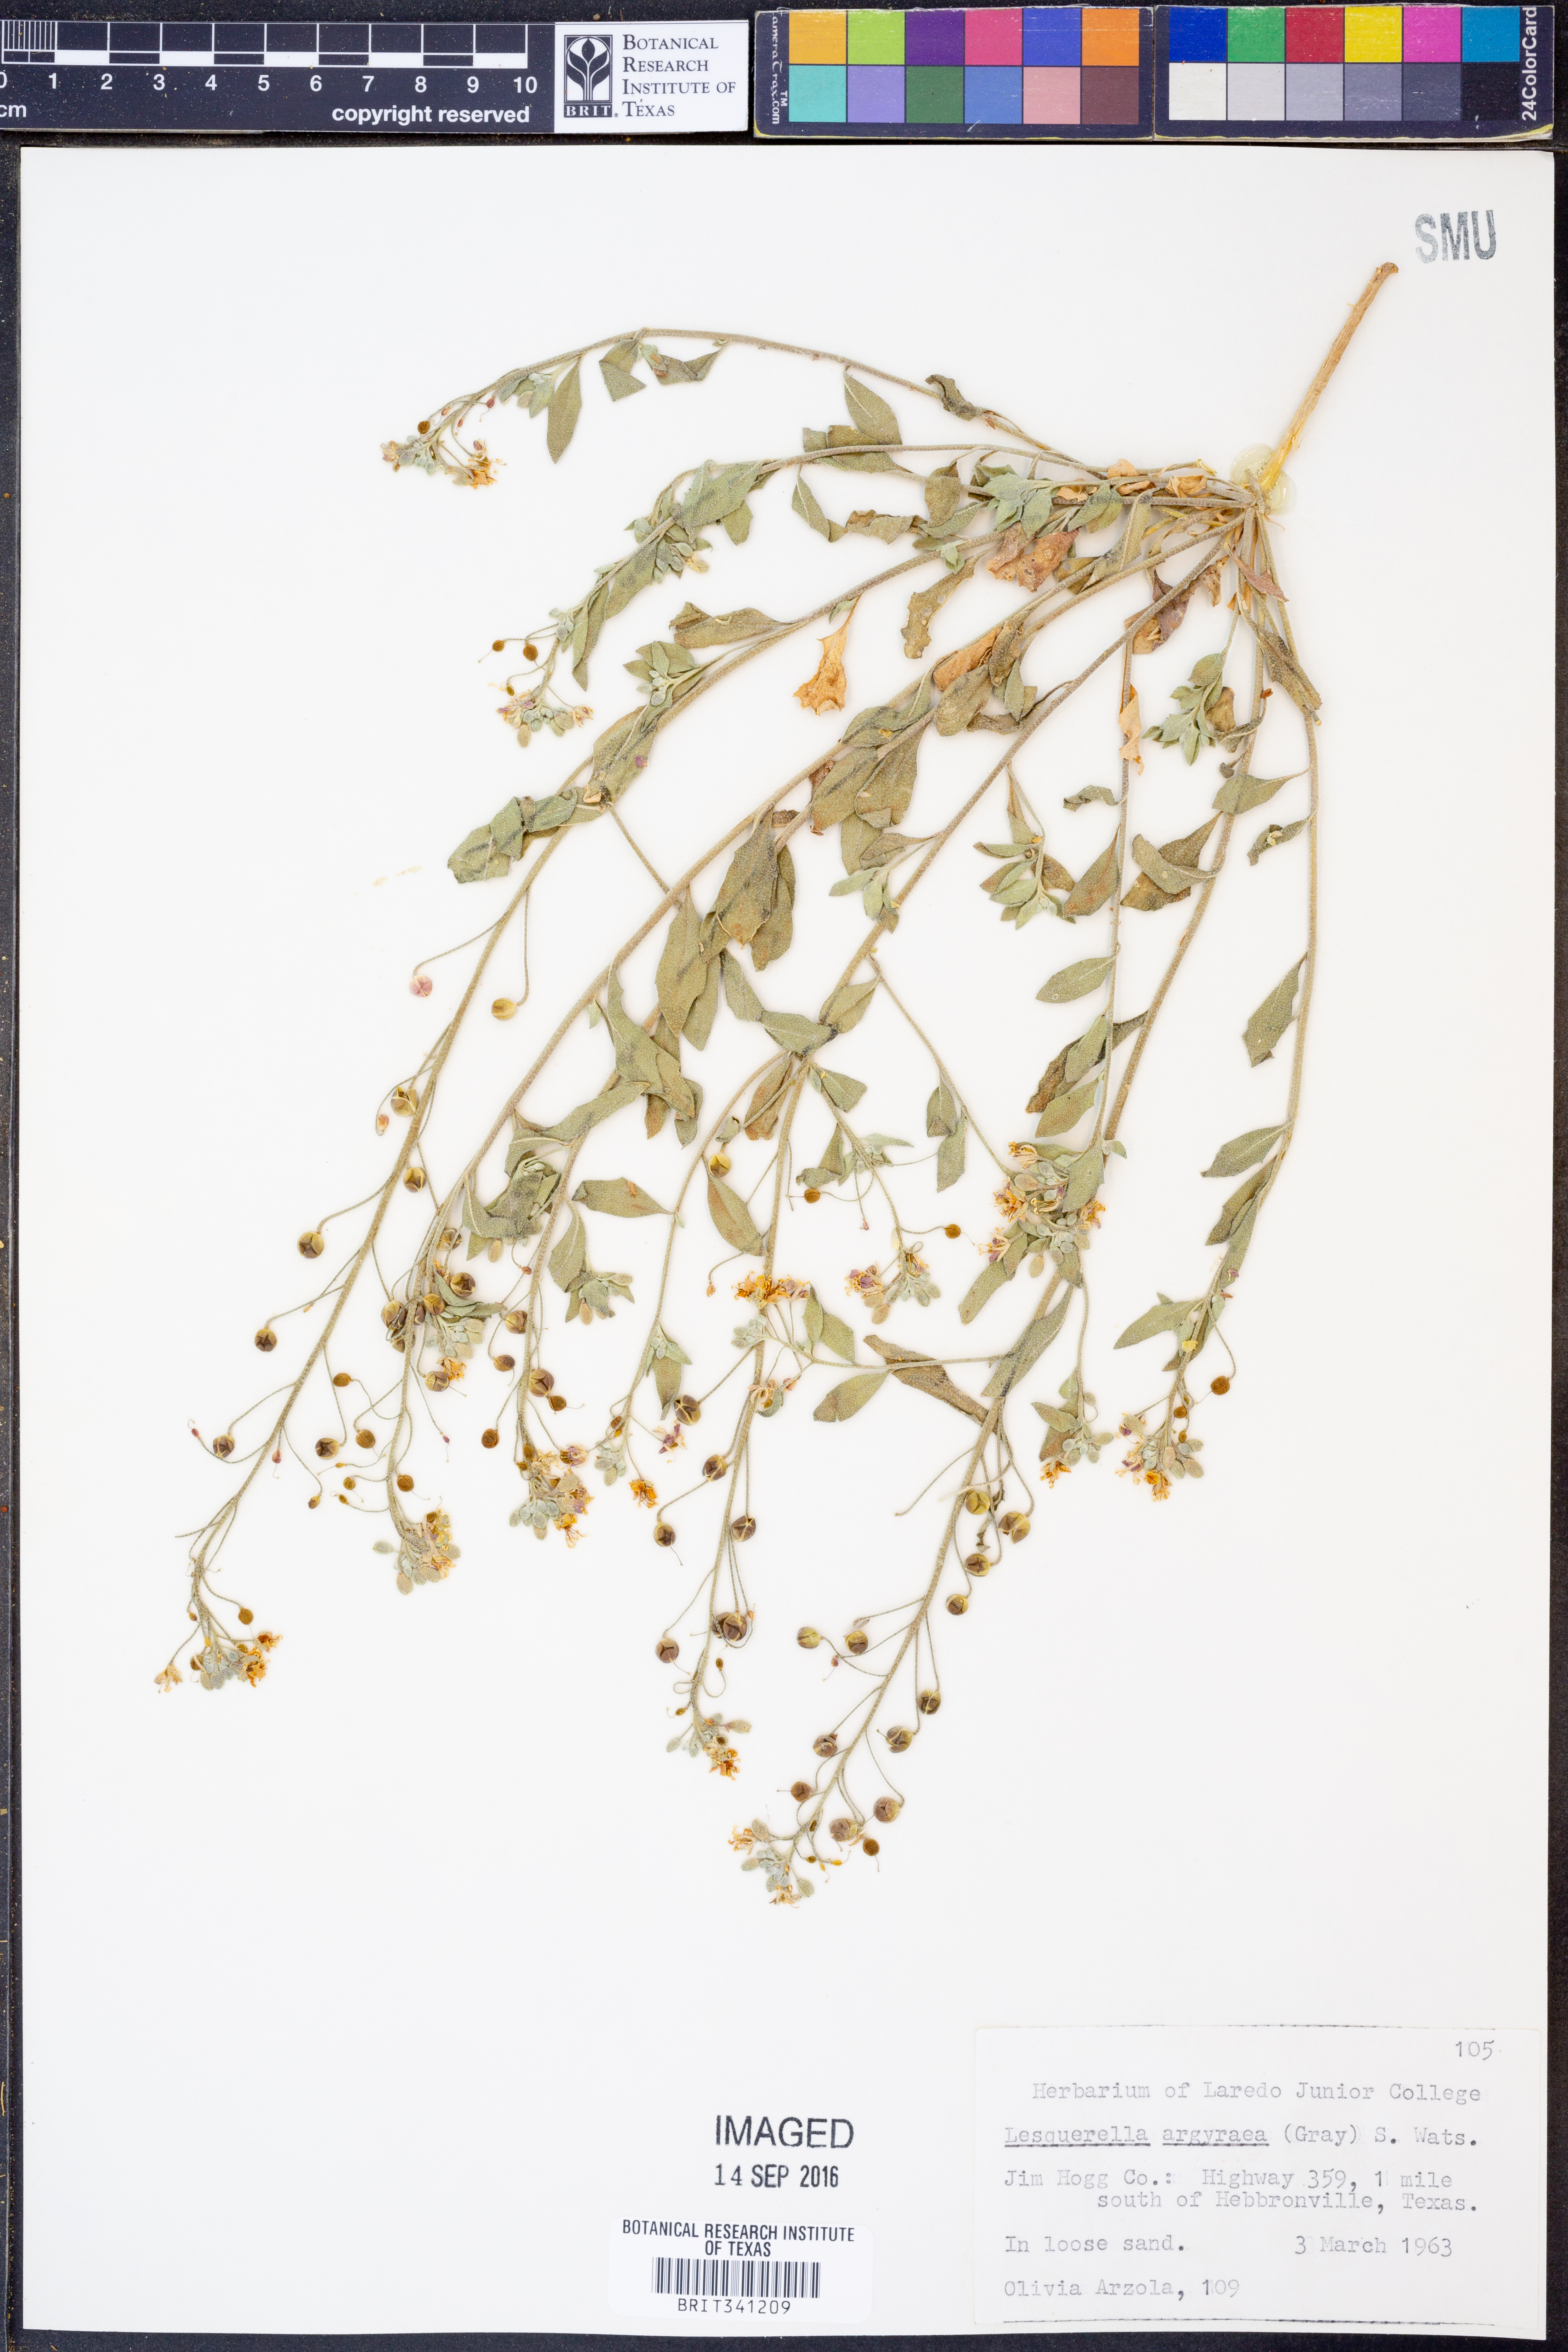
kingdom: Plantae
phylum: Tracheophyta
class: Magnoliopsida
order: Brassicales
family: Brassicaceae
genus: Physaria
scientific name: Physaria argyraea
